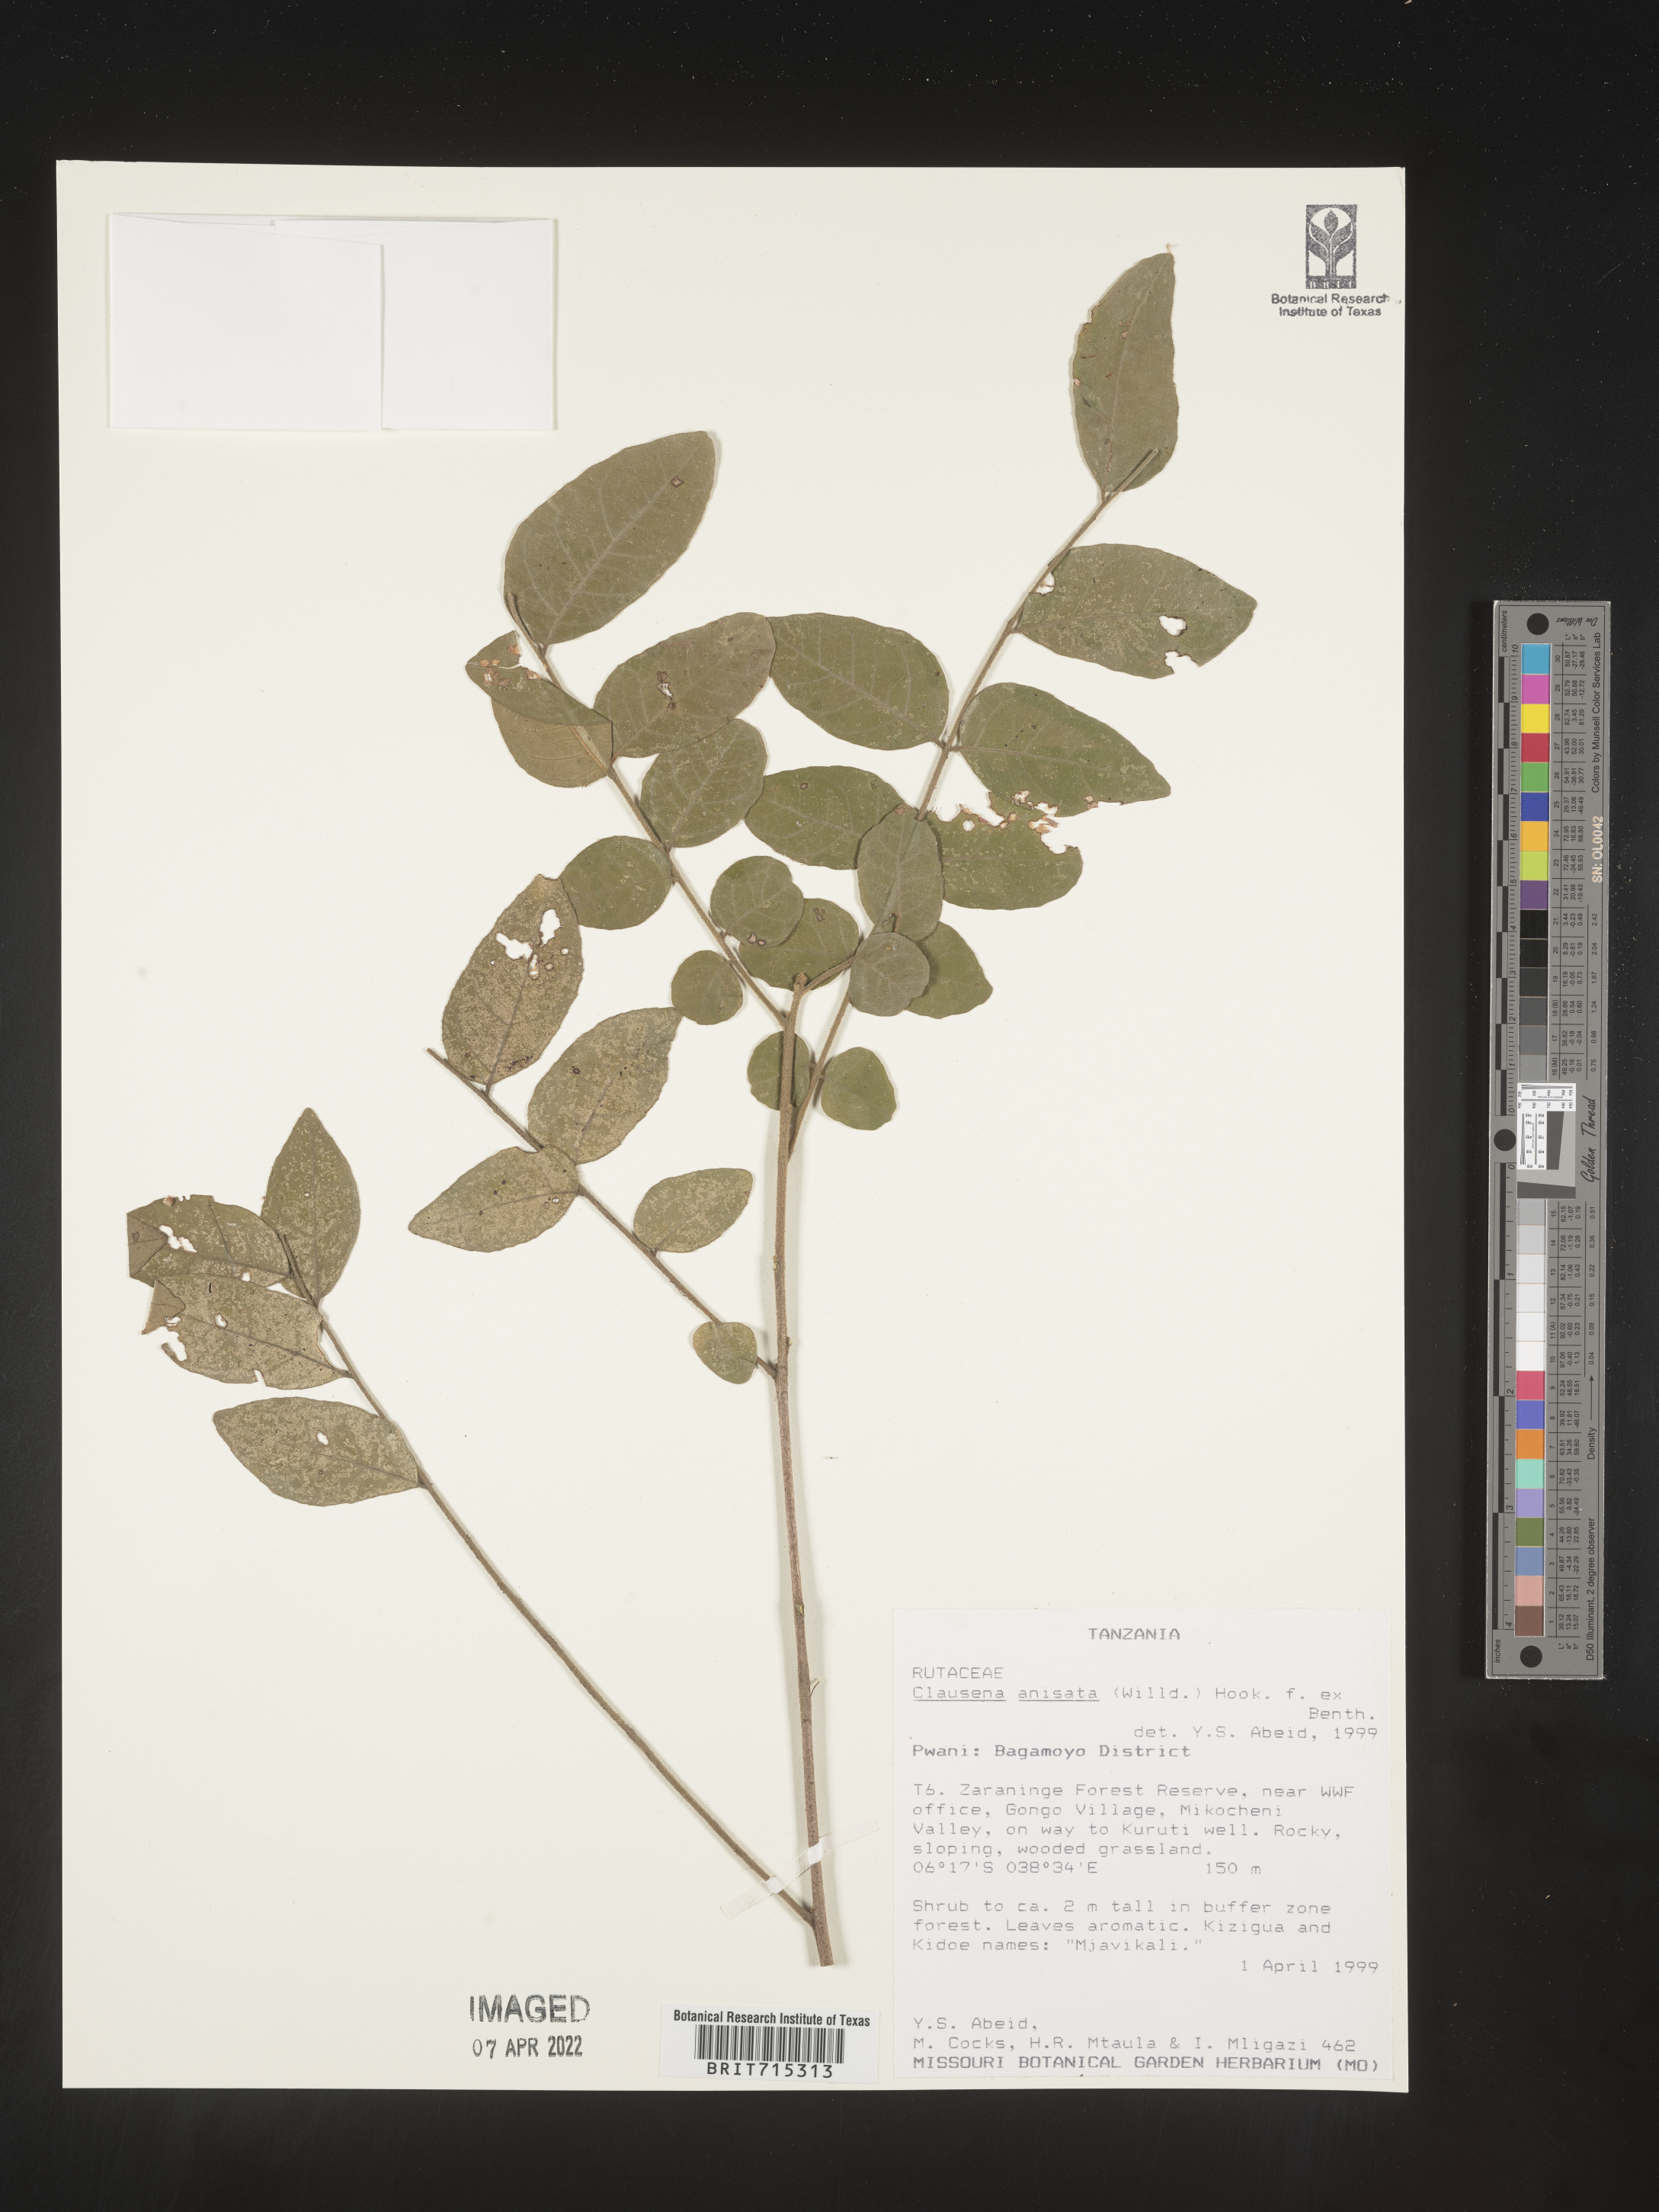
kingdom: Plantae
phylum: Tracheophyta
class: Magnoliopsida
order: Sapindales
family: Rutaceae
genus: Clausena
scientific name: Clausena
